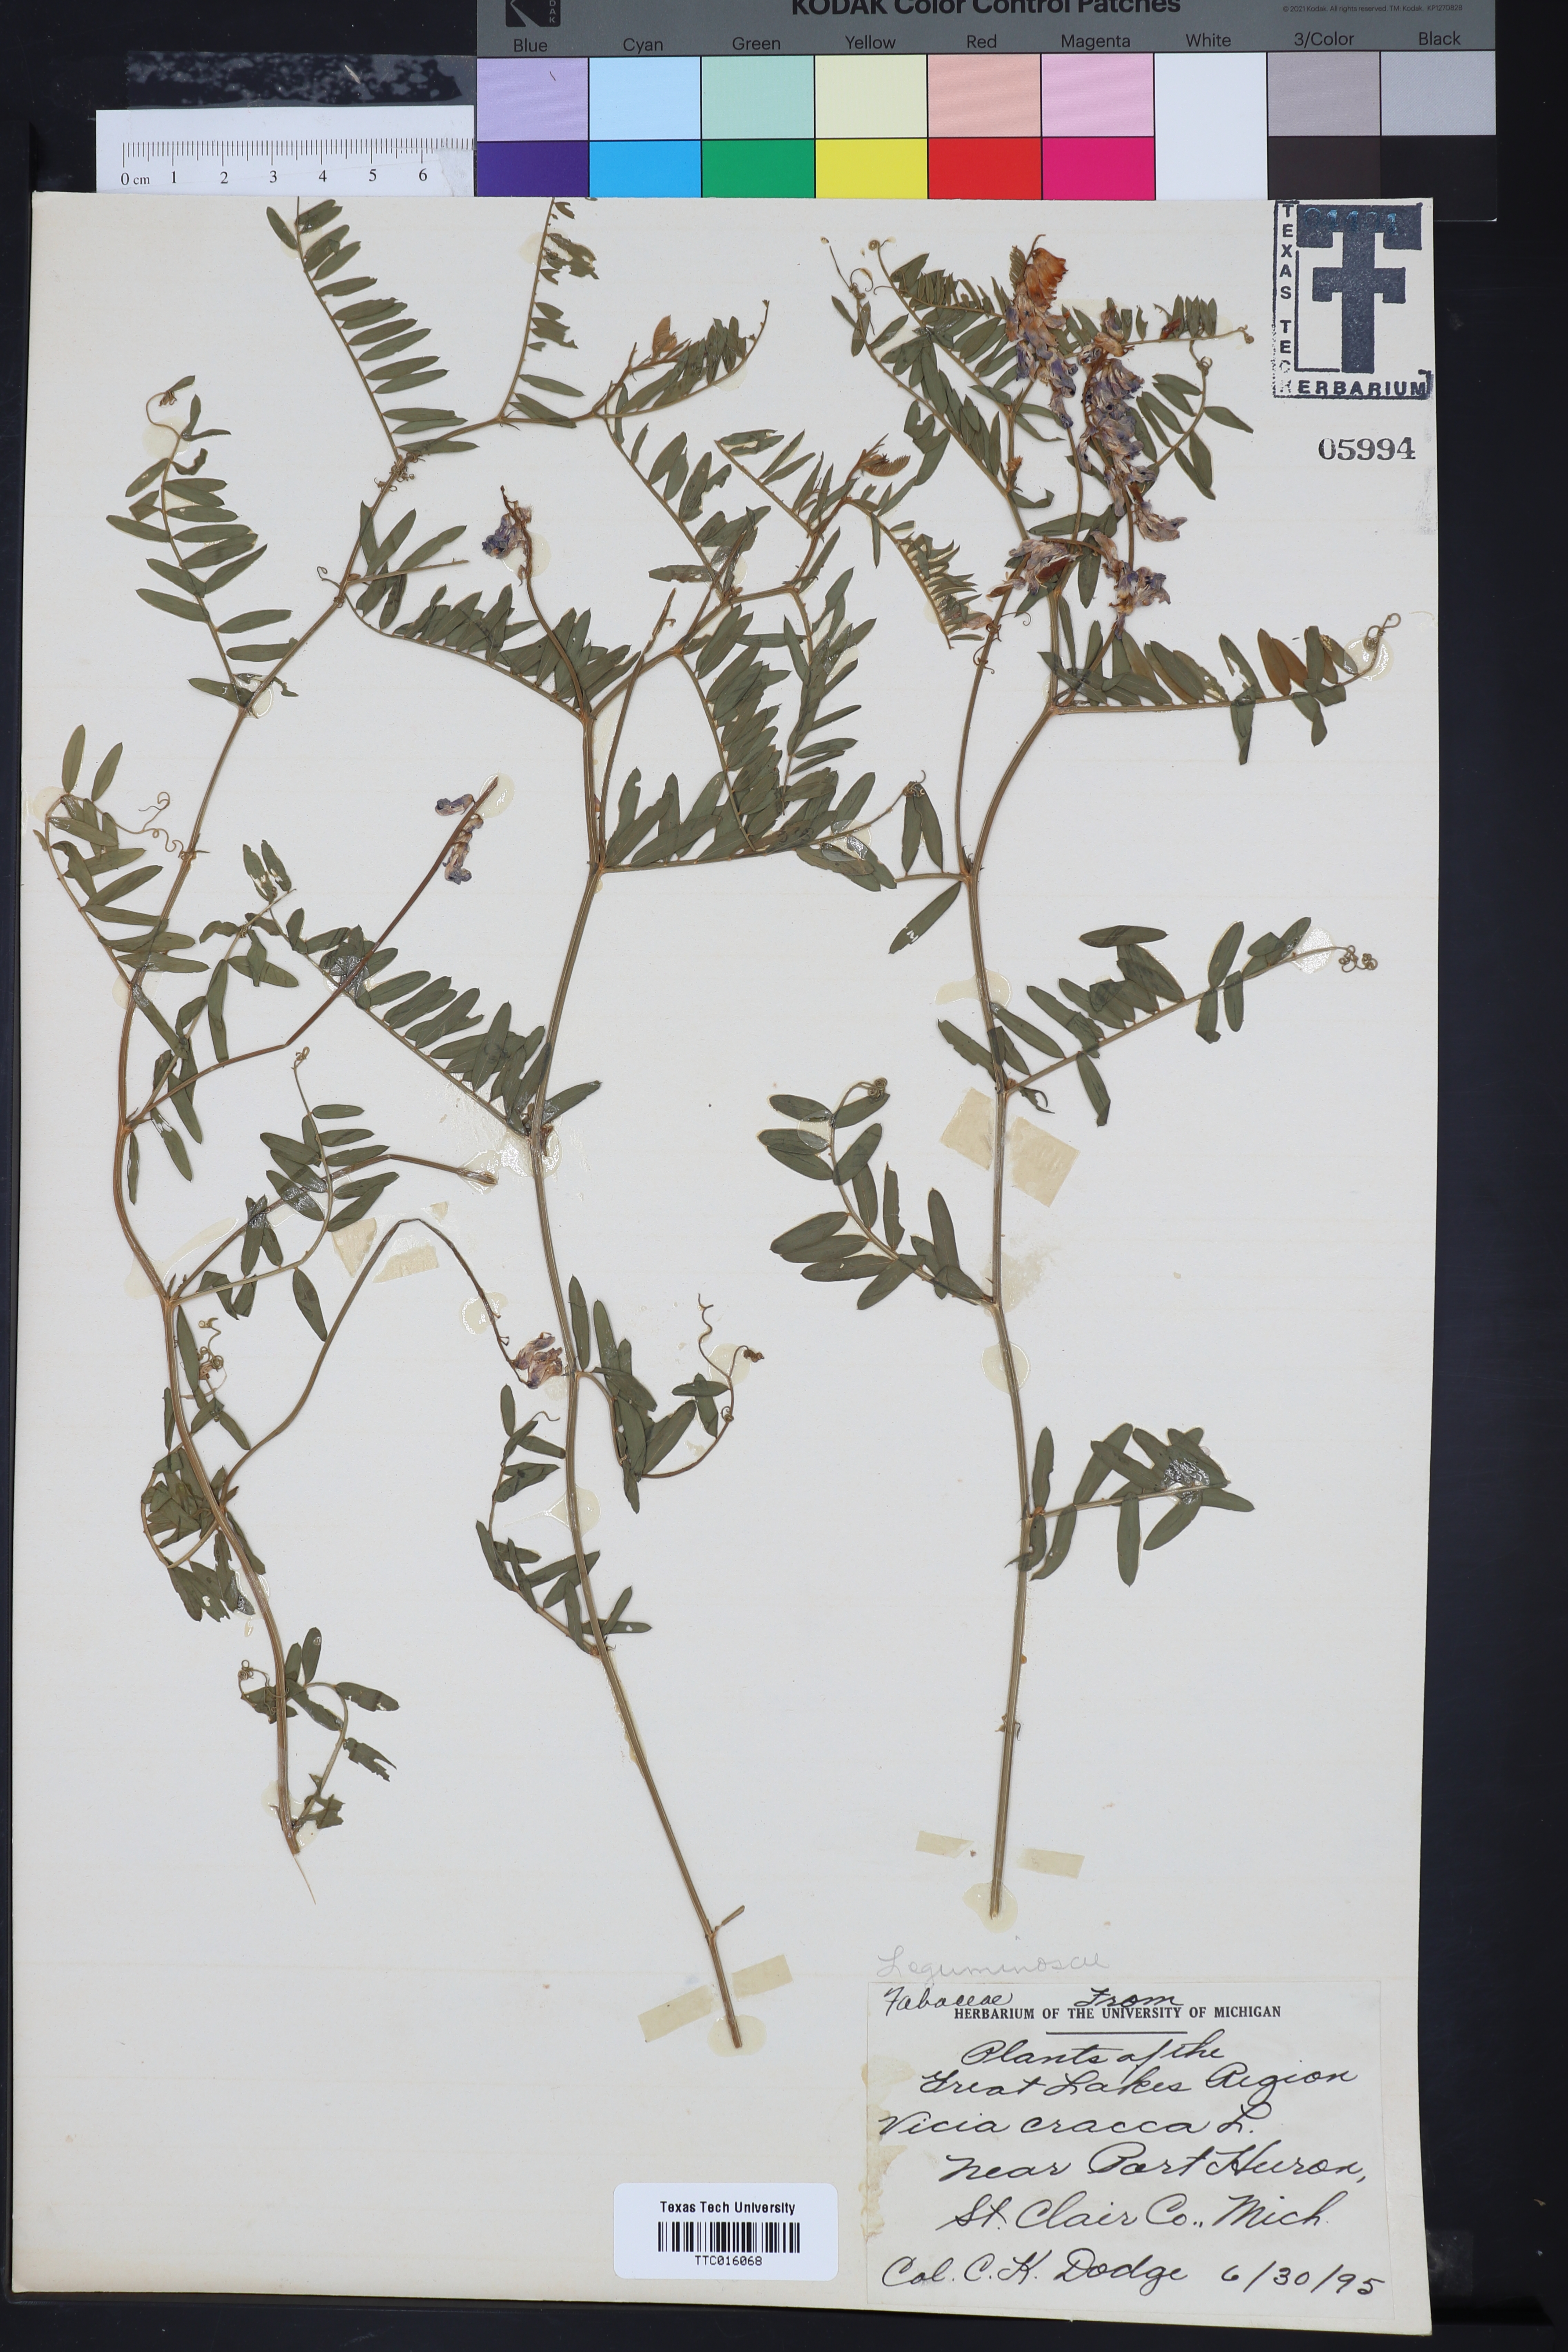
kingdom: Plantae
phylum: Tracheophyta
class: Magnoliopsida
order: Fabales
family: Fabaceae
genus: Vicia
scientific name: Vicia caroliniana
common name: Carolina vetch
